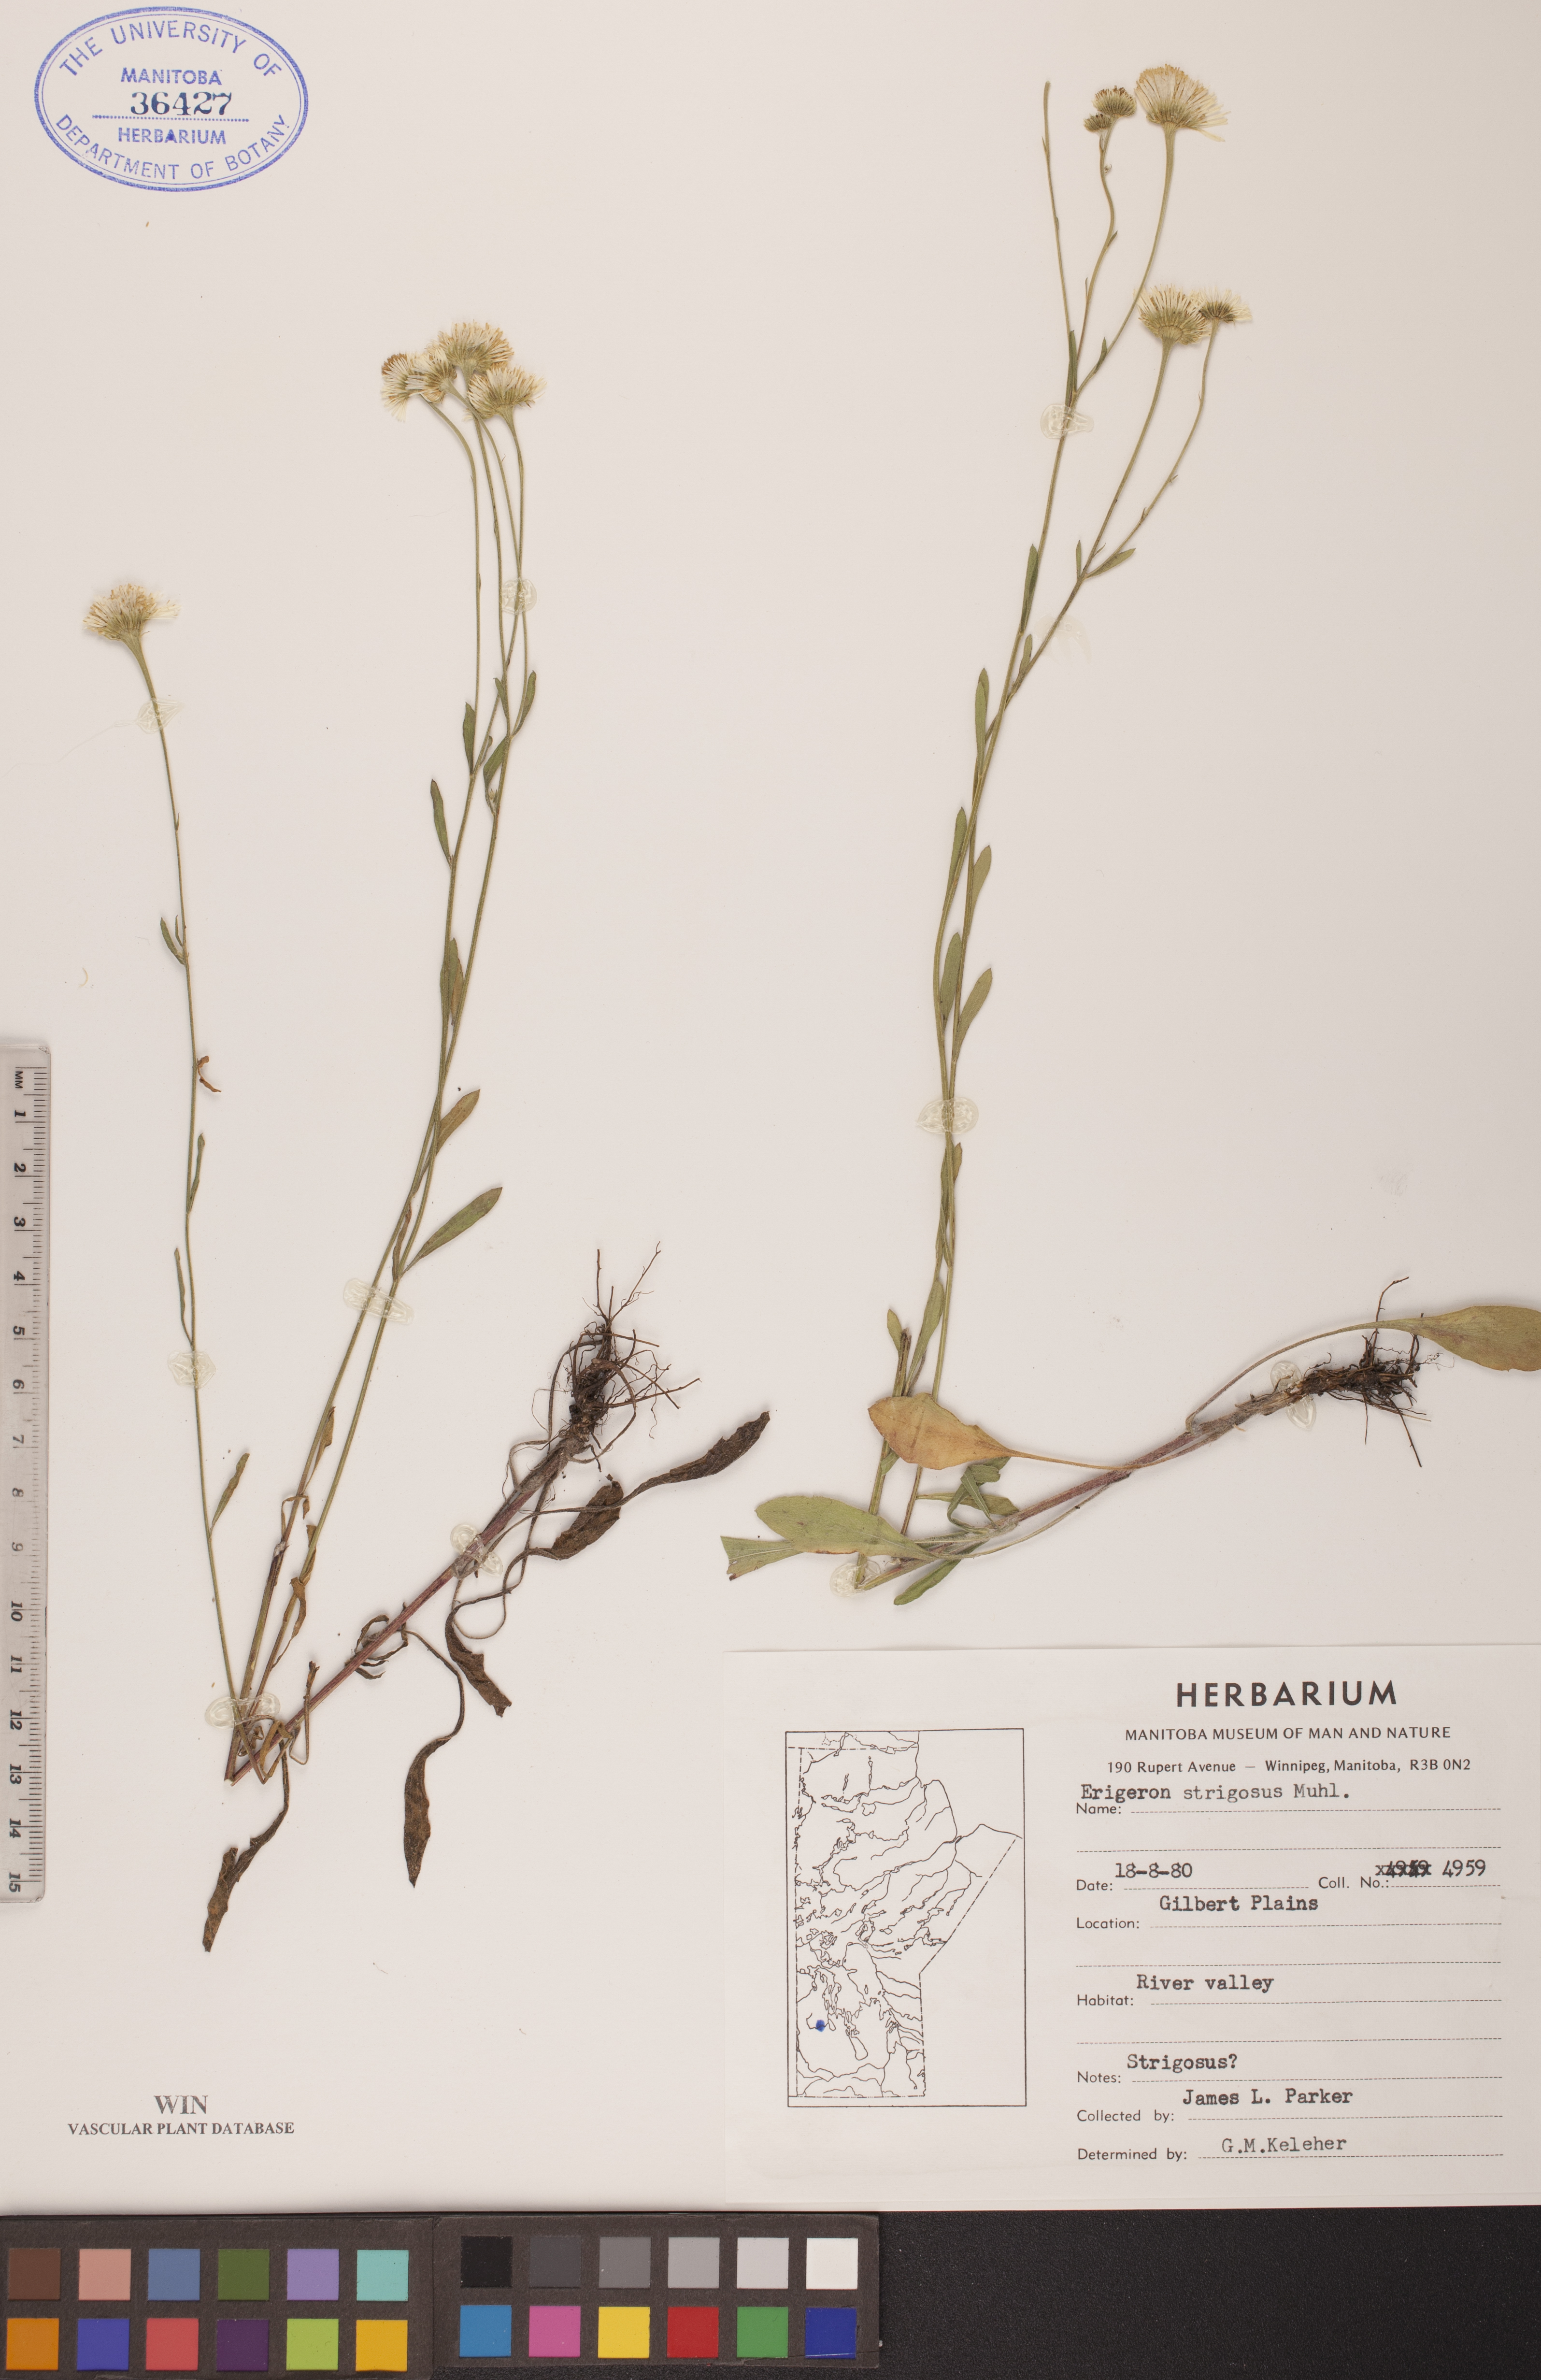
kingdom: Plantae
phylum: Tracheophyta
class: Magnoliopsida
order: Asterales
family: Asteraceae
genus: Erigeron
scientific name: Erigeron strigosus
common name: Common eastern fleabane
